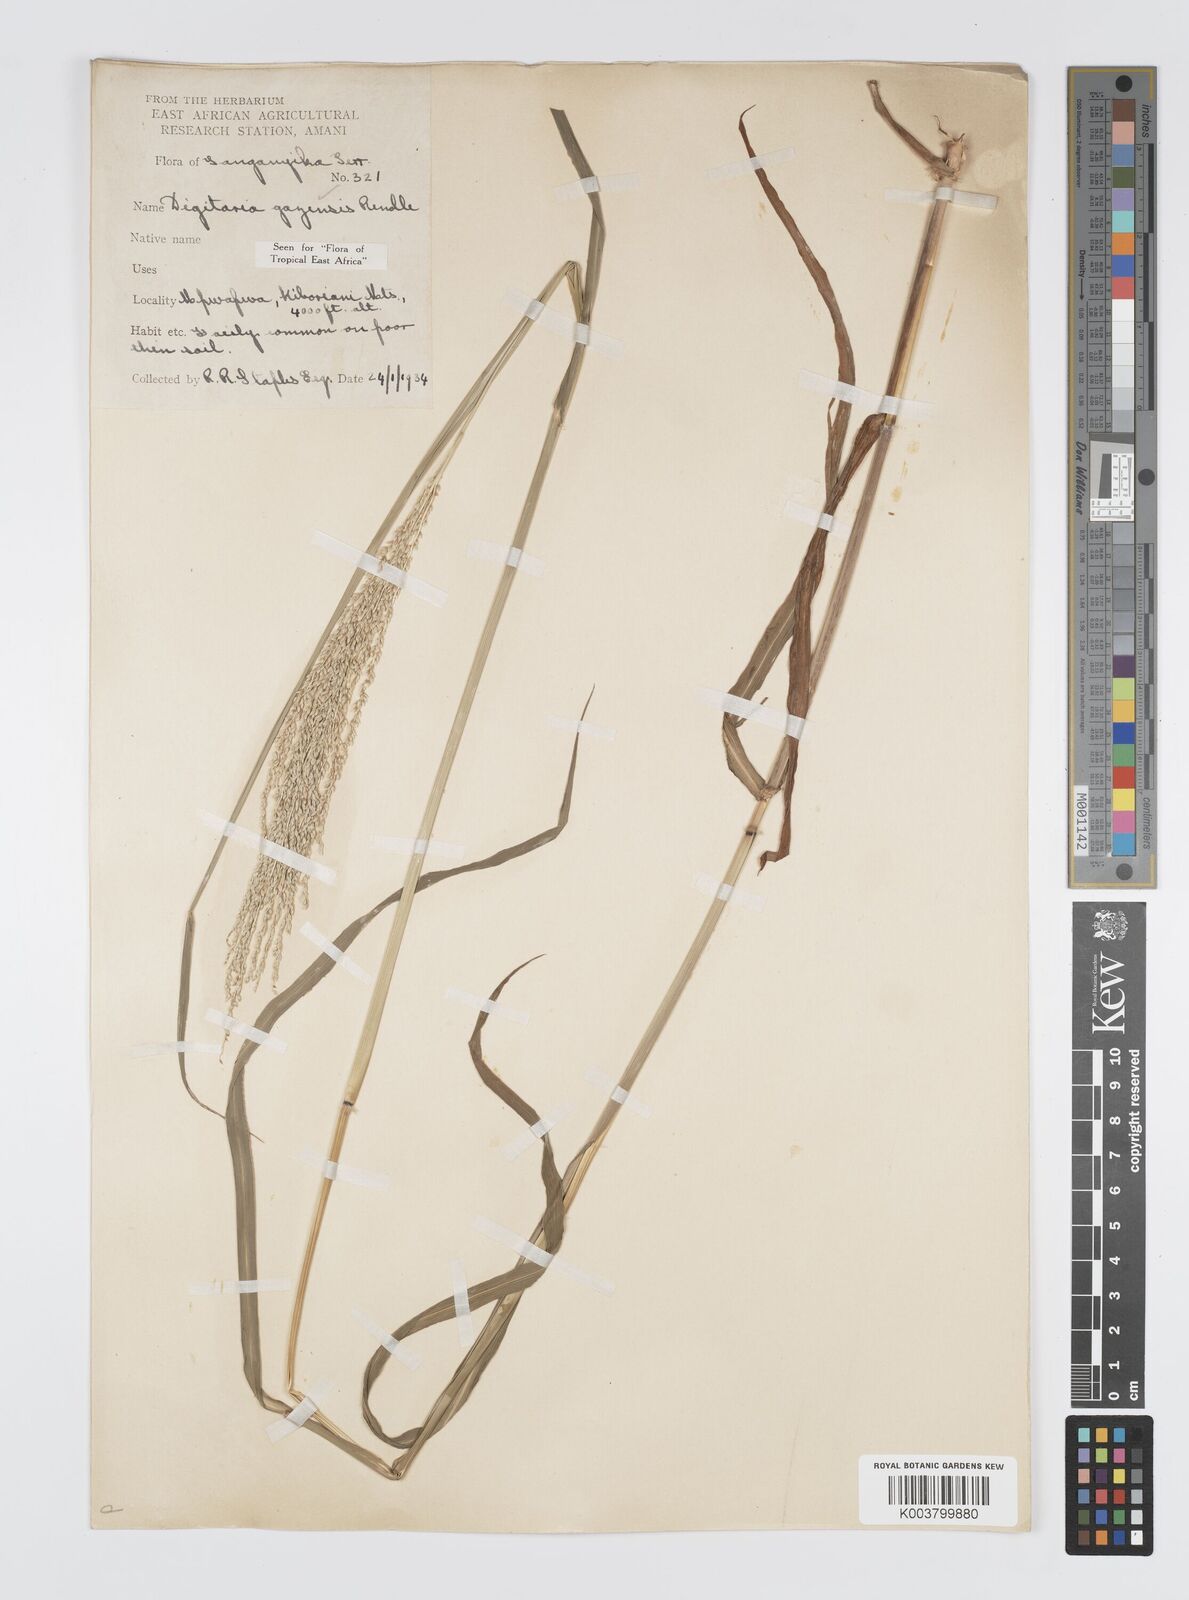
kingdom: Plantae
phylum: Tracheophyta
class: Liliopsida
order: Poales
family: Poaceae
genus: Digitaria
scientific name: Digitaria gazensis
